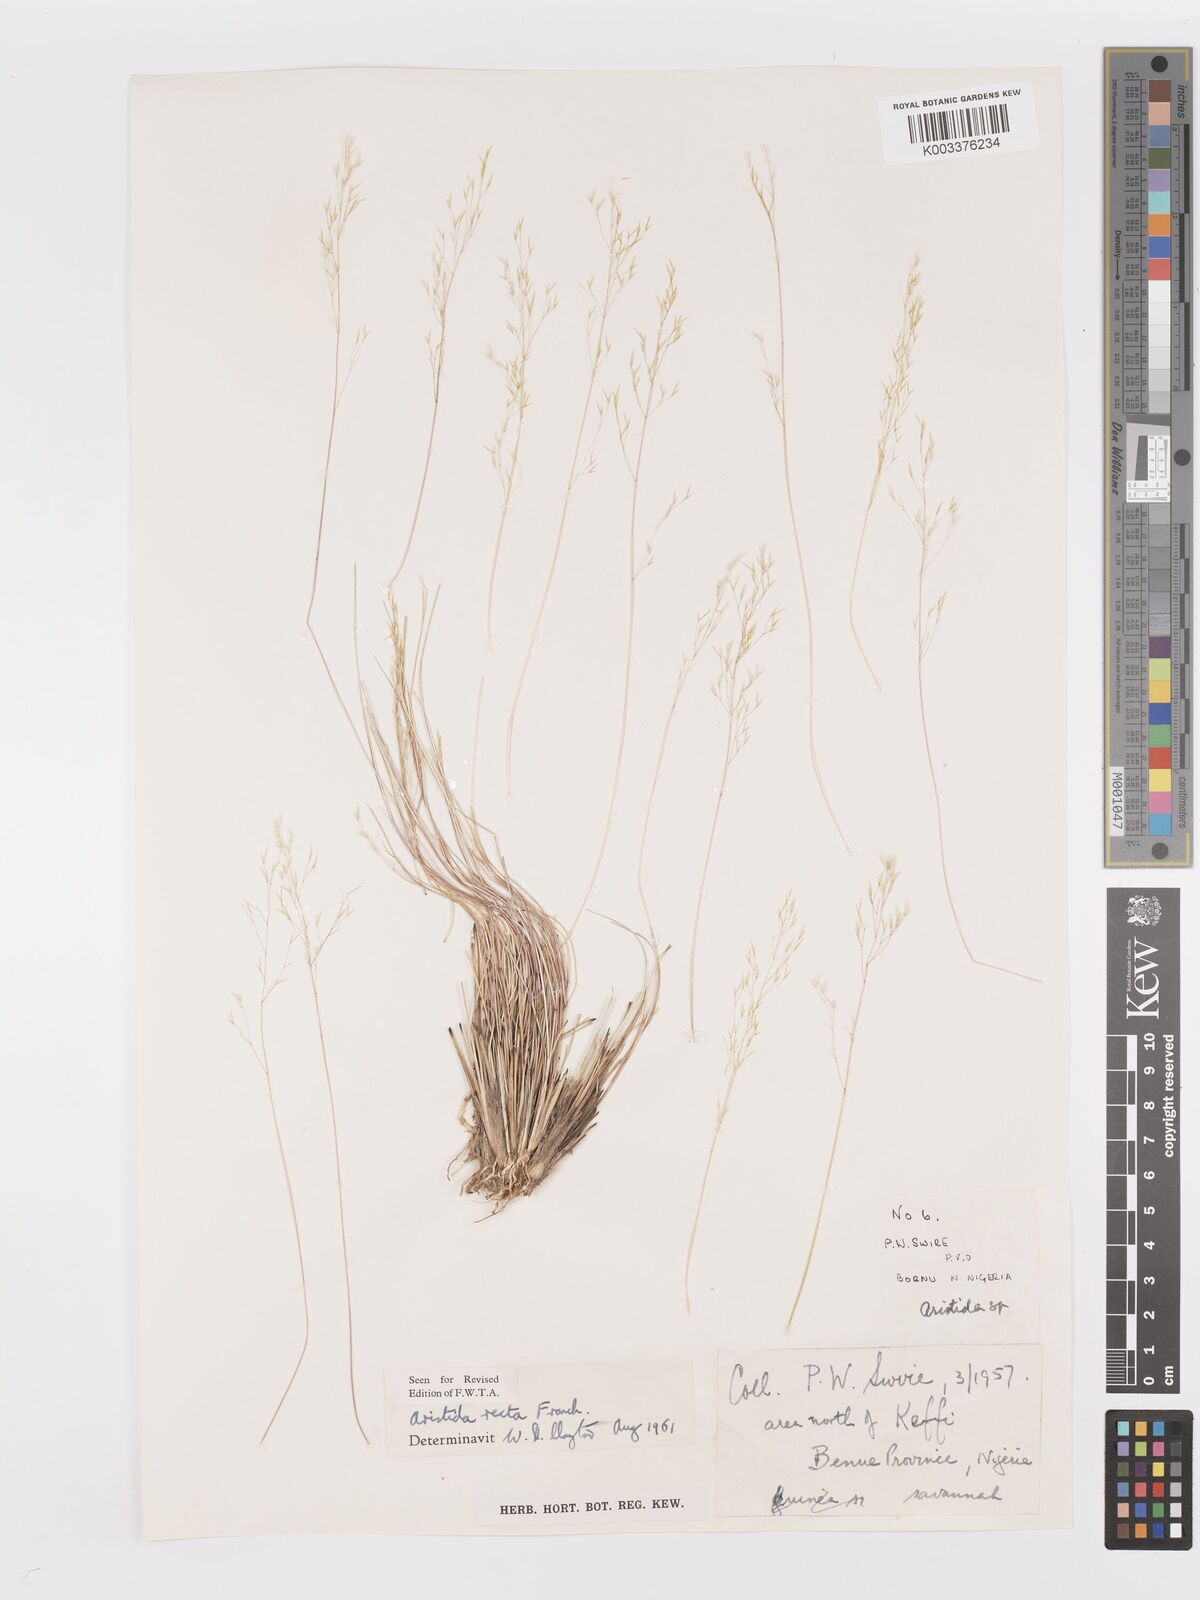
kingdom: Plantae
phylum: Tracheophyta
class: Liliopsida
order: Poales
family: Poaceae
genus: Aristida
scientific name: Aristida recta
